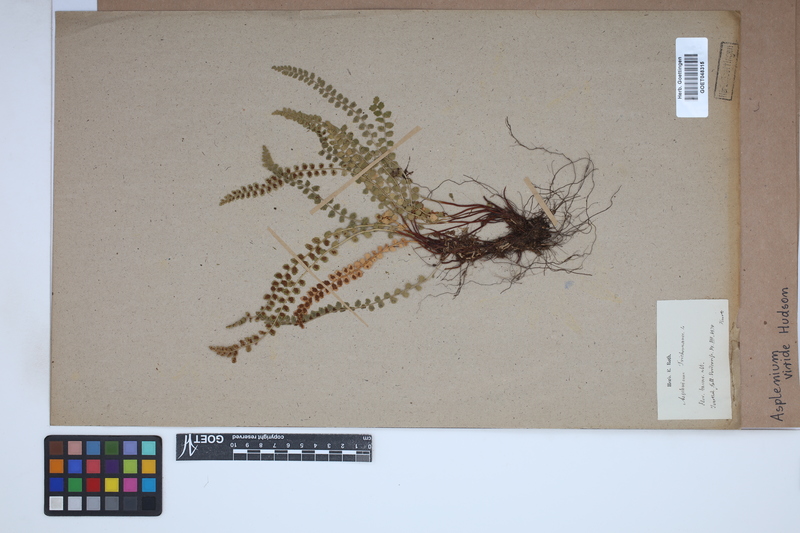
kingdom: Plantae
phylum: Tracheophyta
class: Polypodiopsida
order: Polypodiales
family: Aspleniaceae
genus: Asplenium
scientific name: Asplenium viride
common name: Green spleenwort
